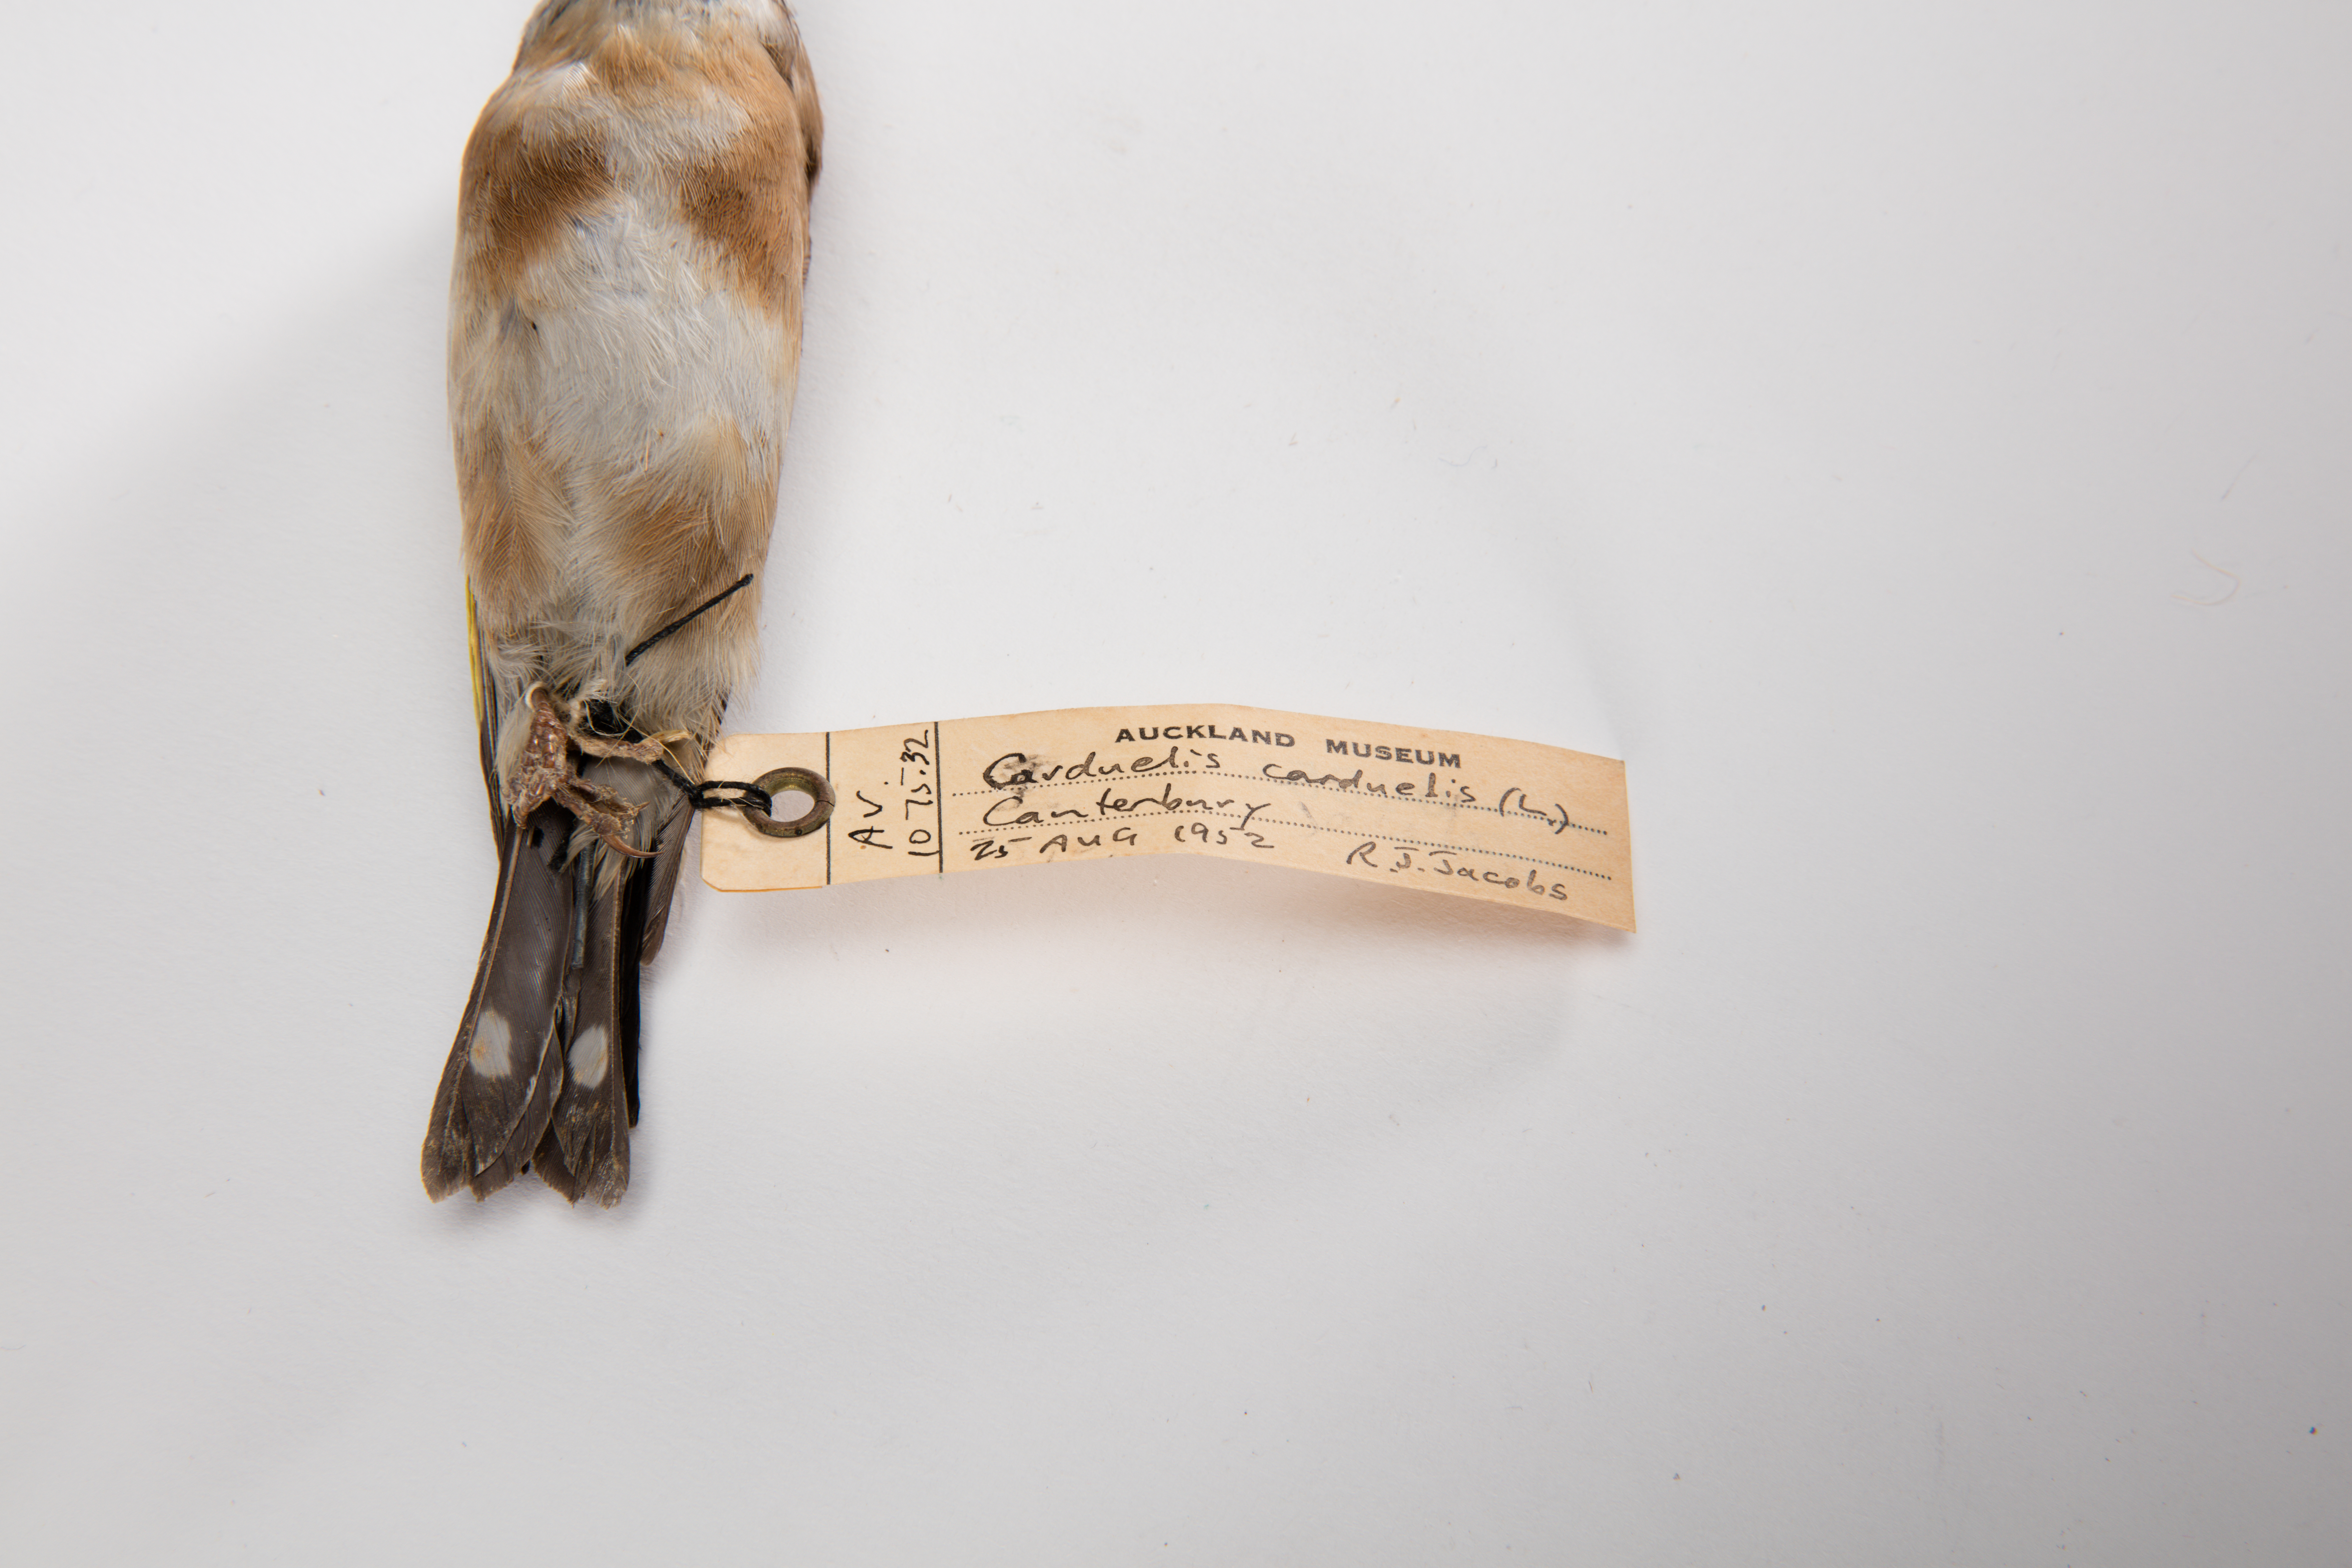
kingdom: Animalia
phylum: Chordata
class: Aves
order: Passeriformes
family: Fringillidae
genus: Carduelis
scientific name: Carduelis carduelis
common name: European goldfinch
